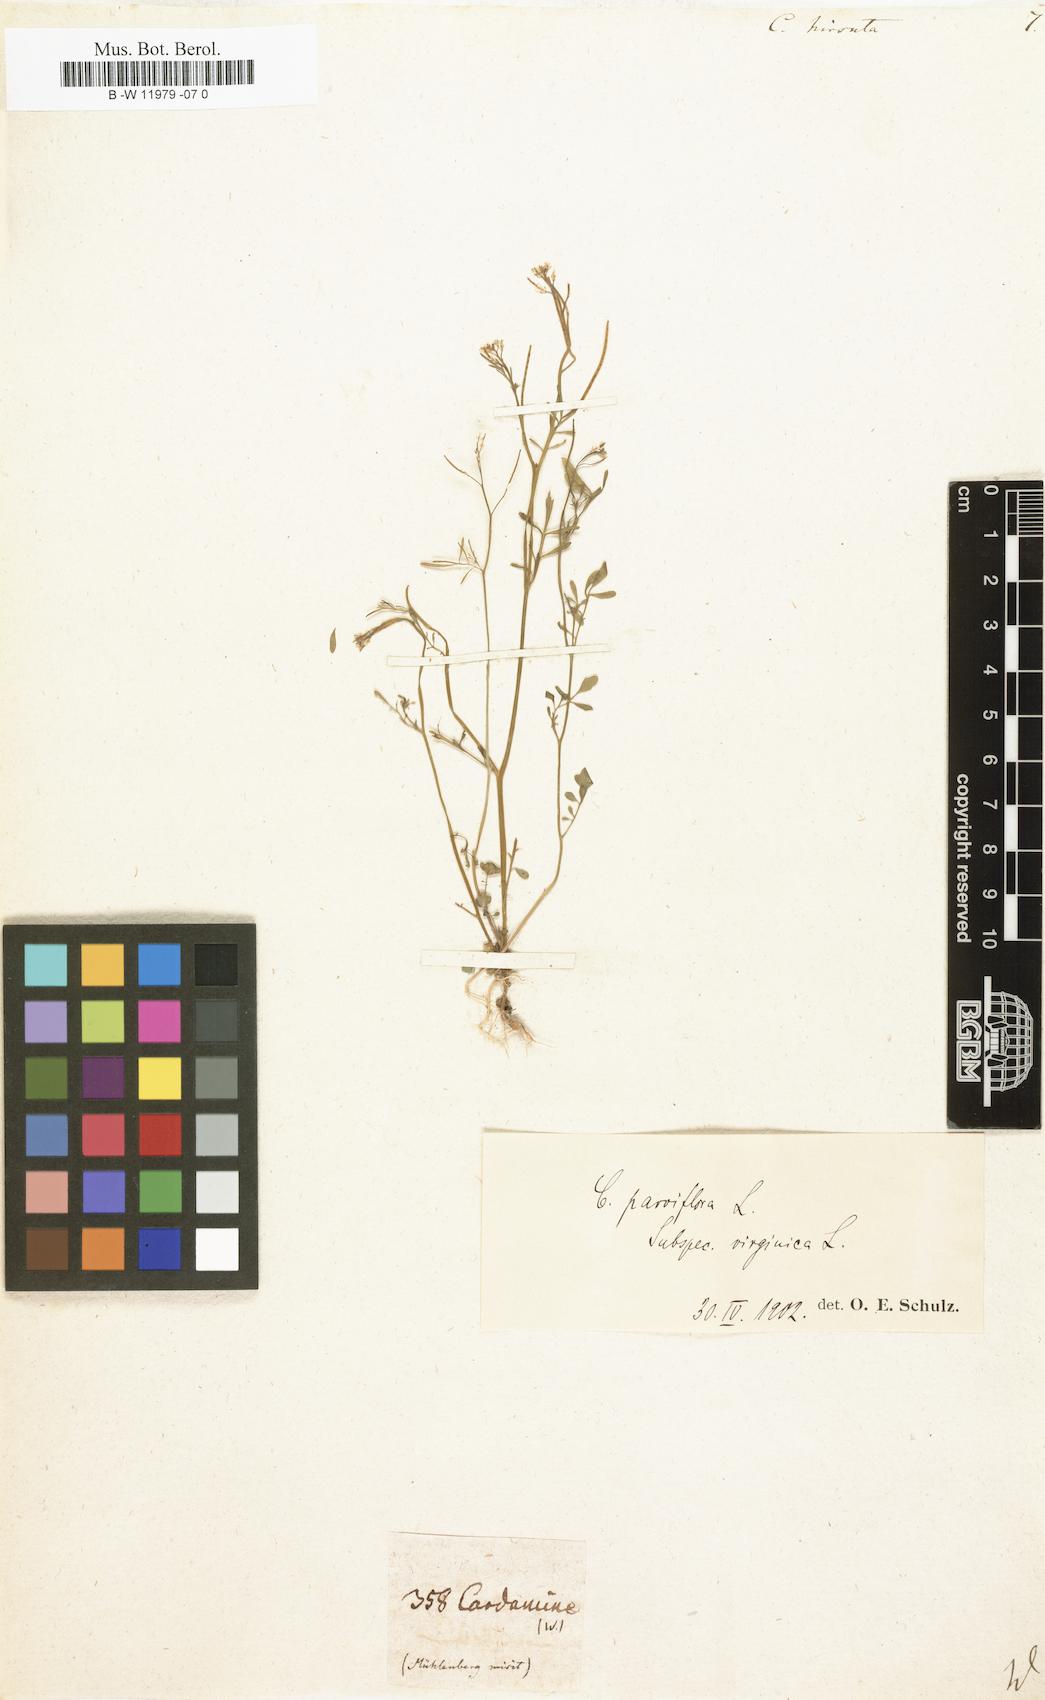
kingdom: Plantae
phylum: Tracheophyta
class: Magnoliopsida
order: Brassicales
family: Brassicaceae
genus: Cardamine
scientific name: Cardamine hirsuta
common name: Hairy bittercress
